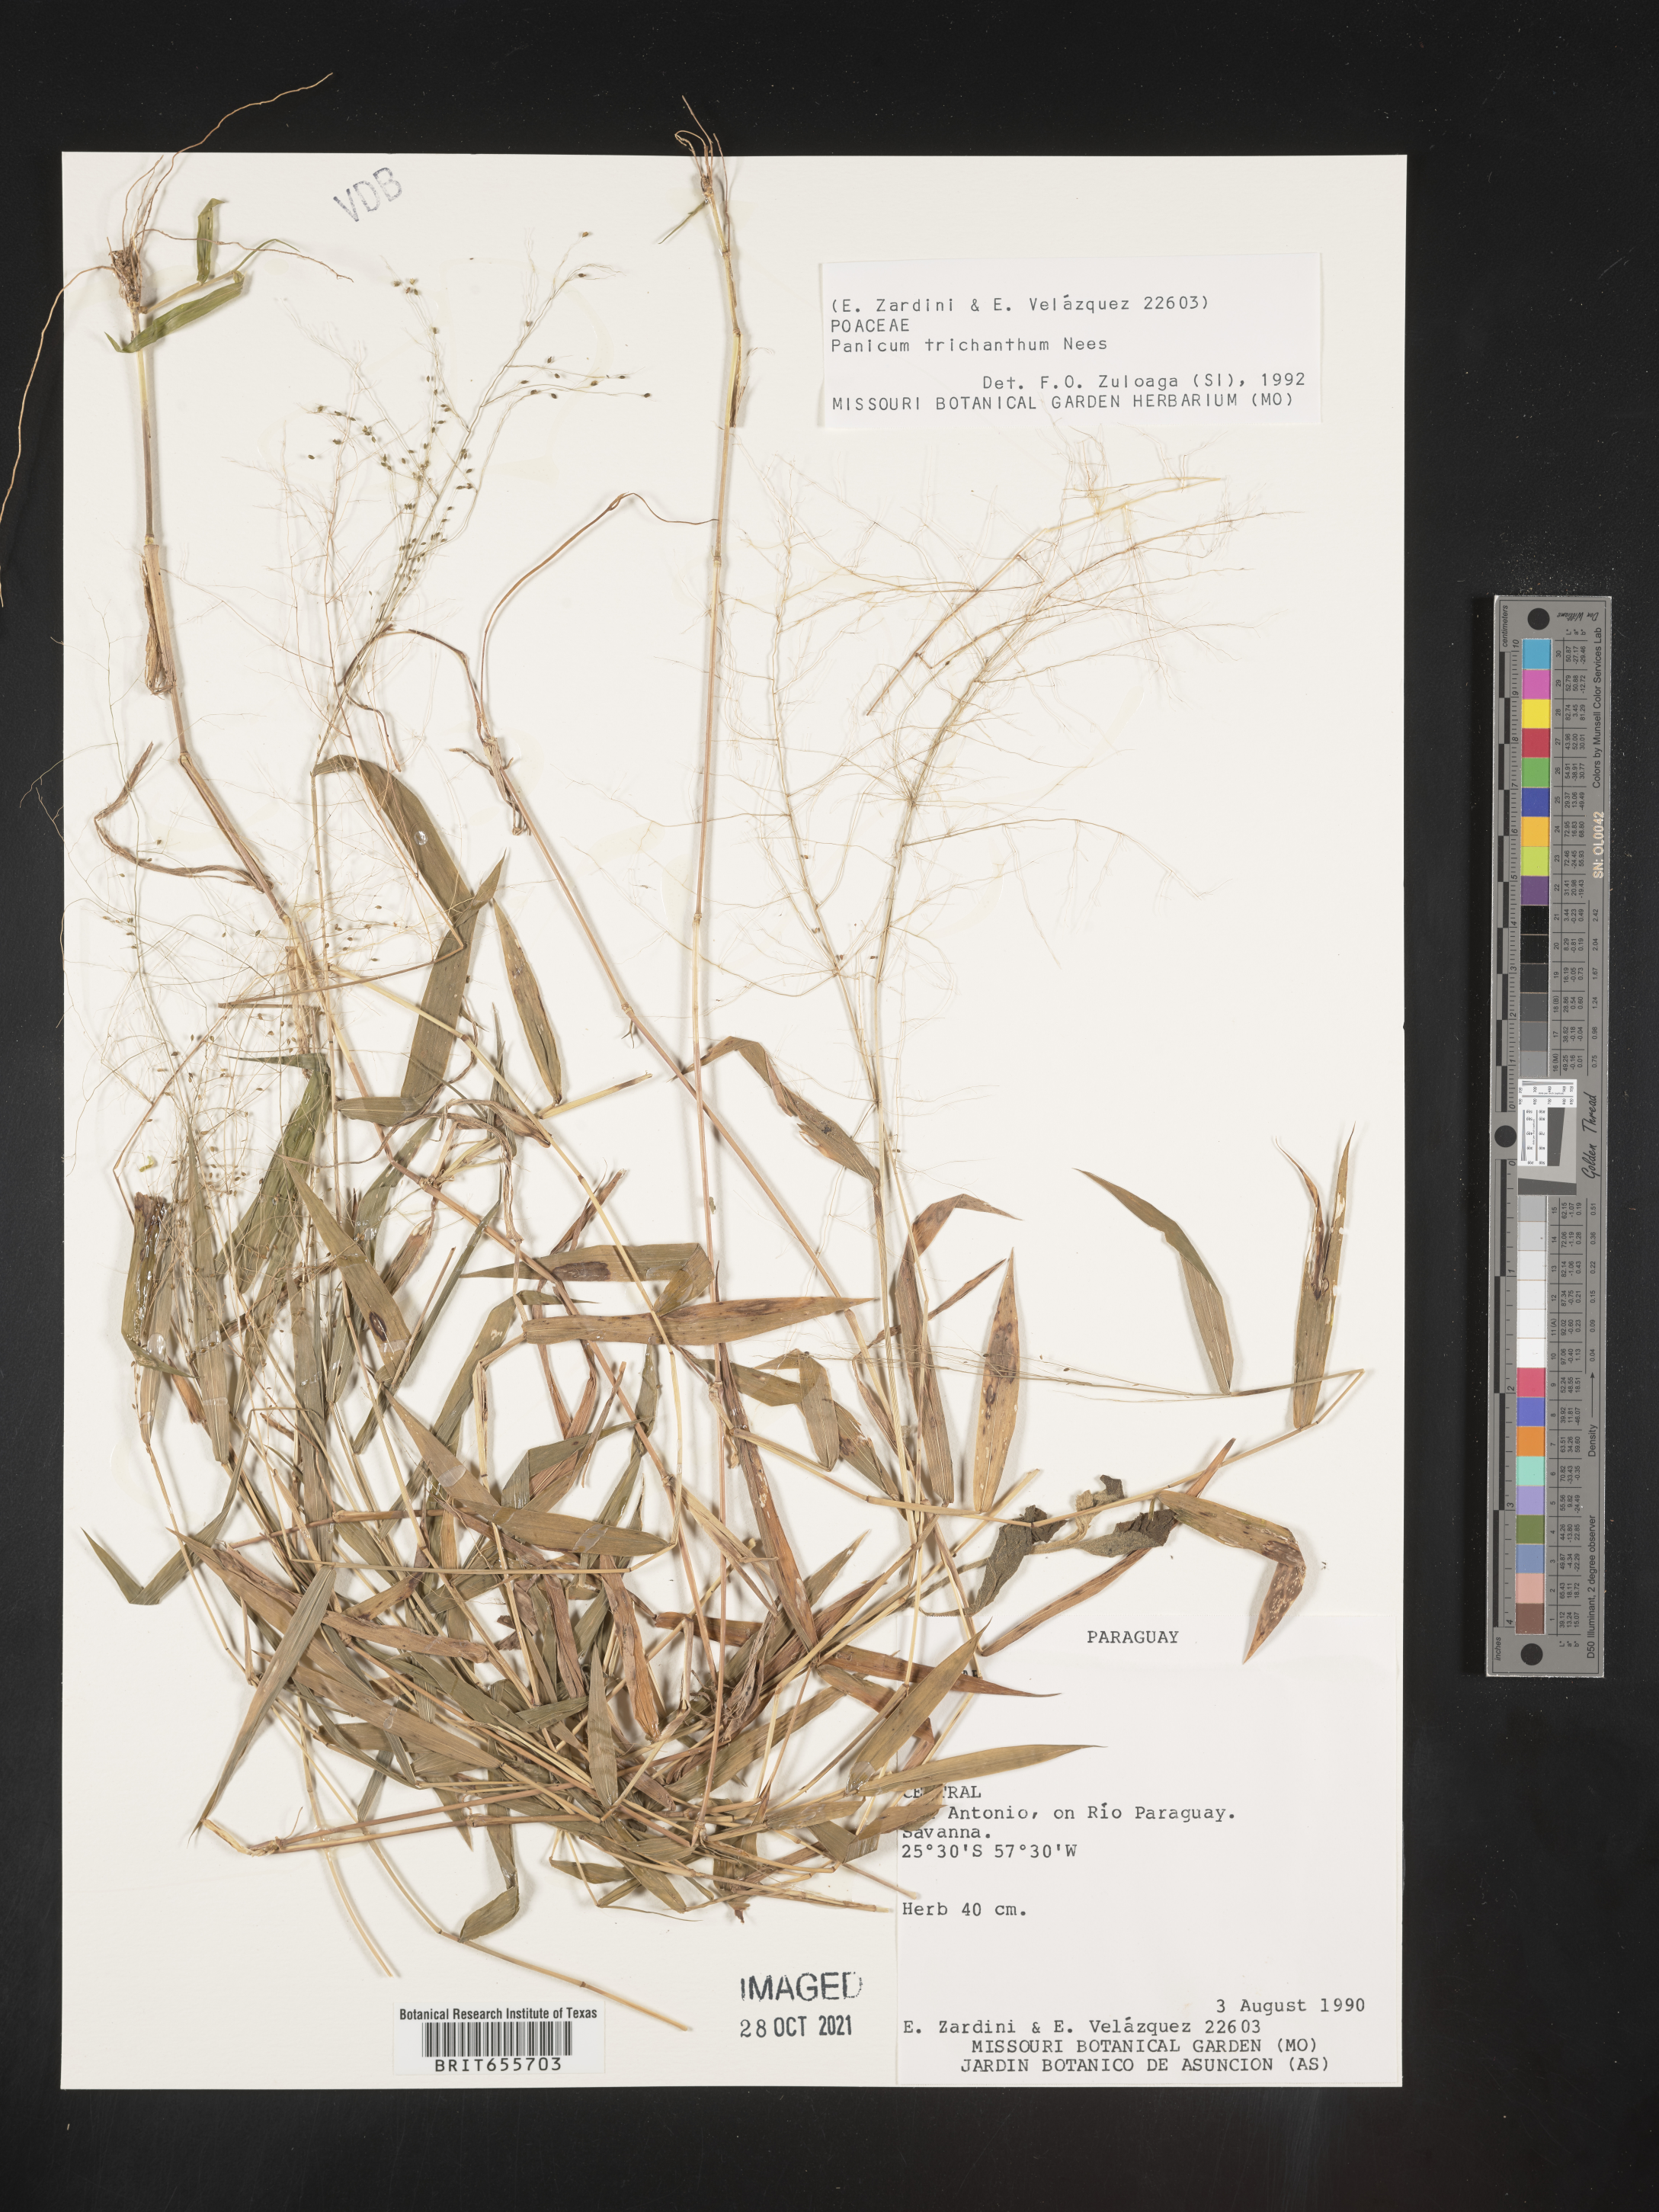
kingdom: Plantae
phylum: Tracheophyta
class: Liliopsida
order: Poales
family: Poaceae
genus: Panicum
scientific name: Panicum
